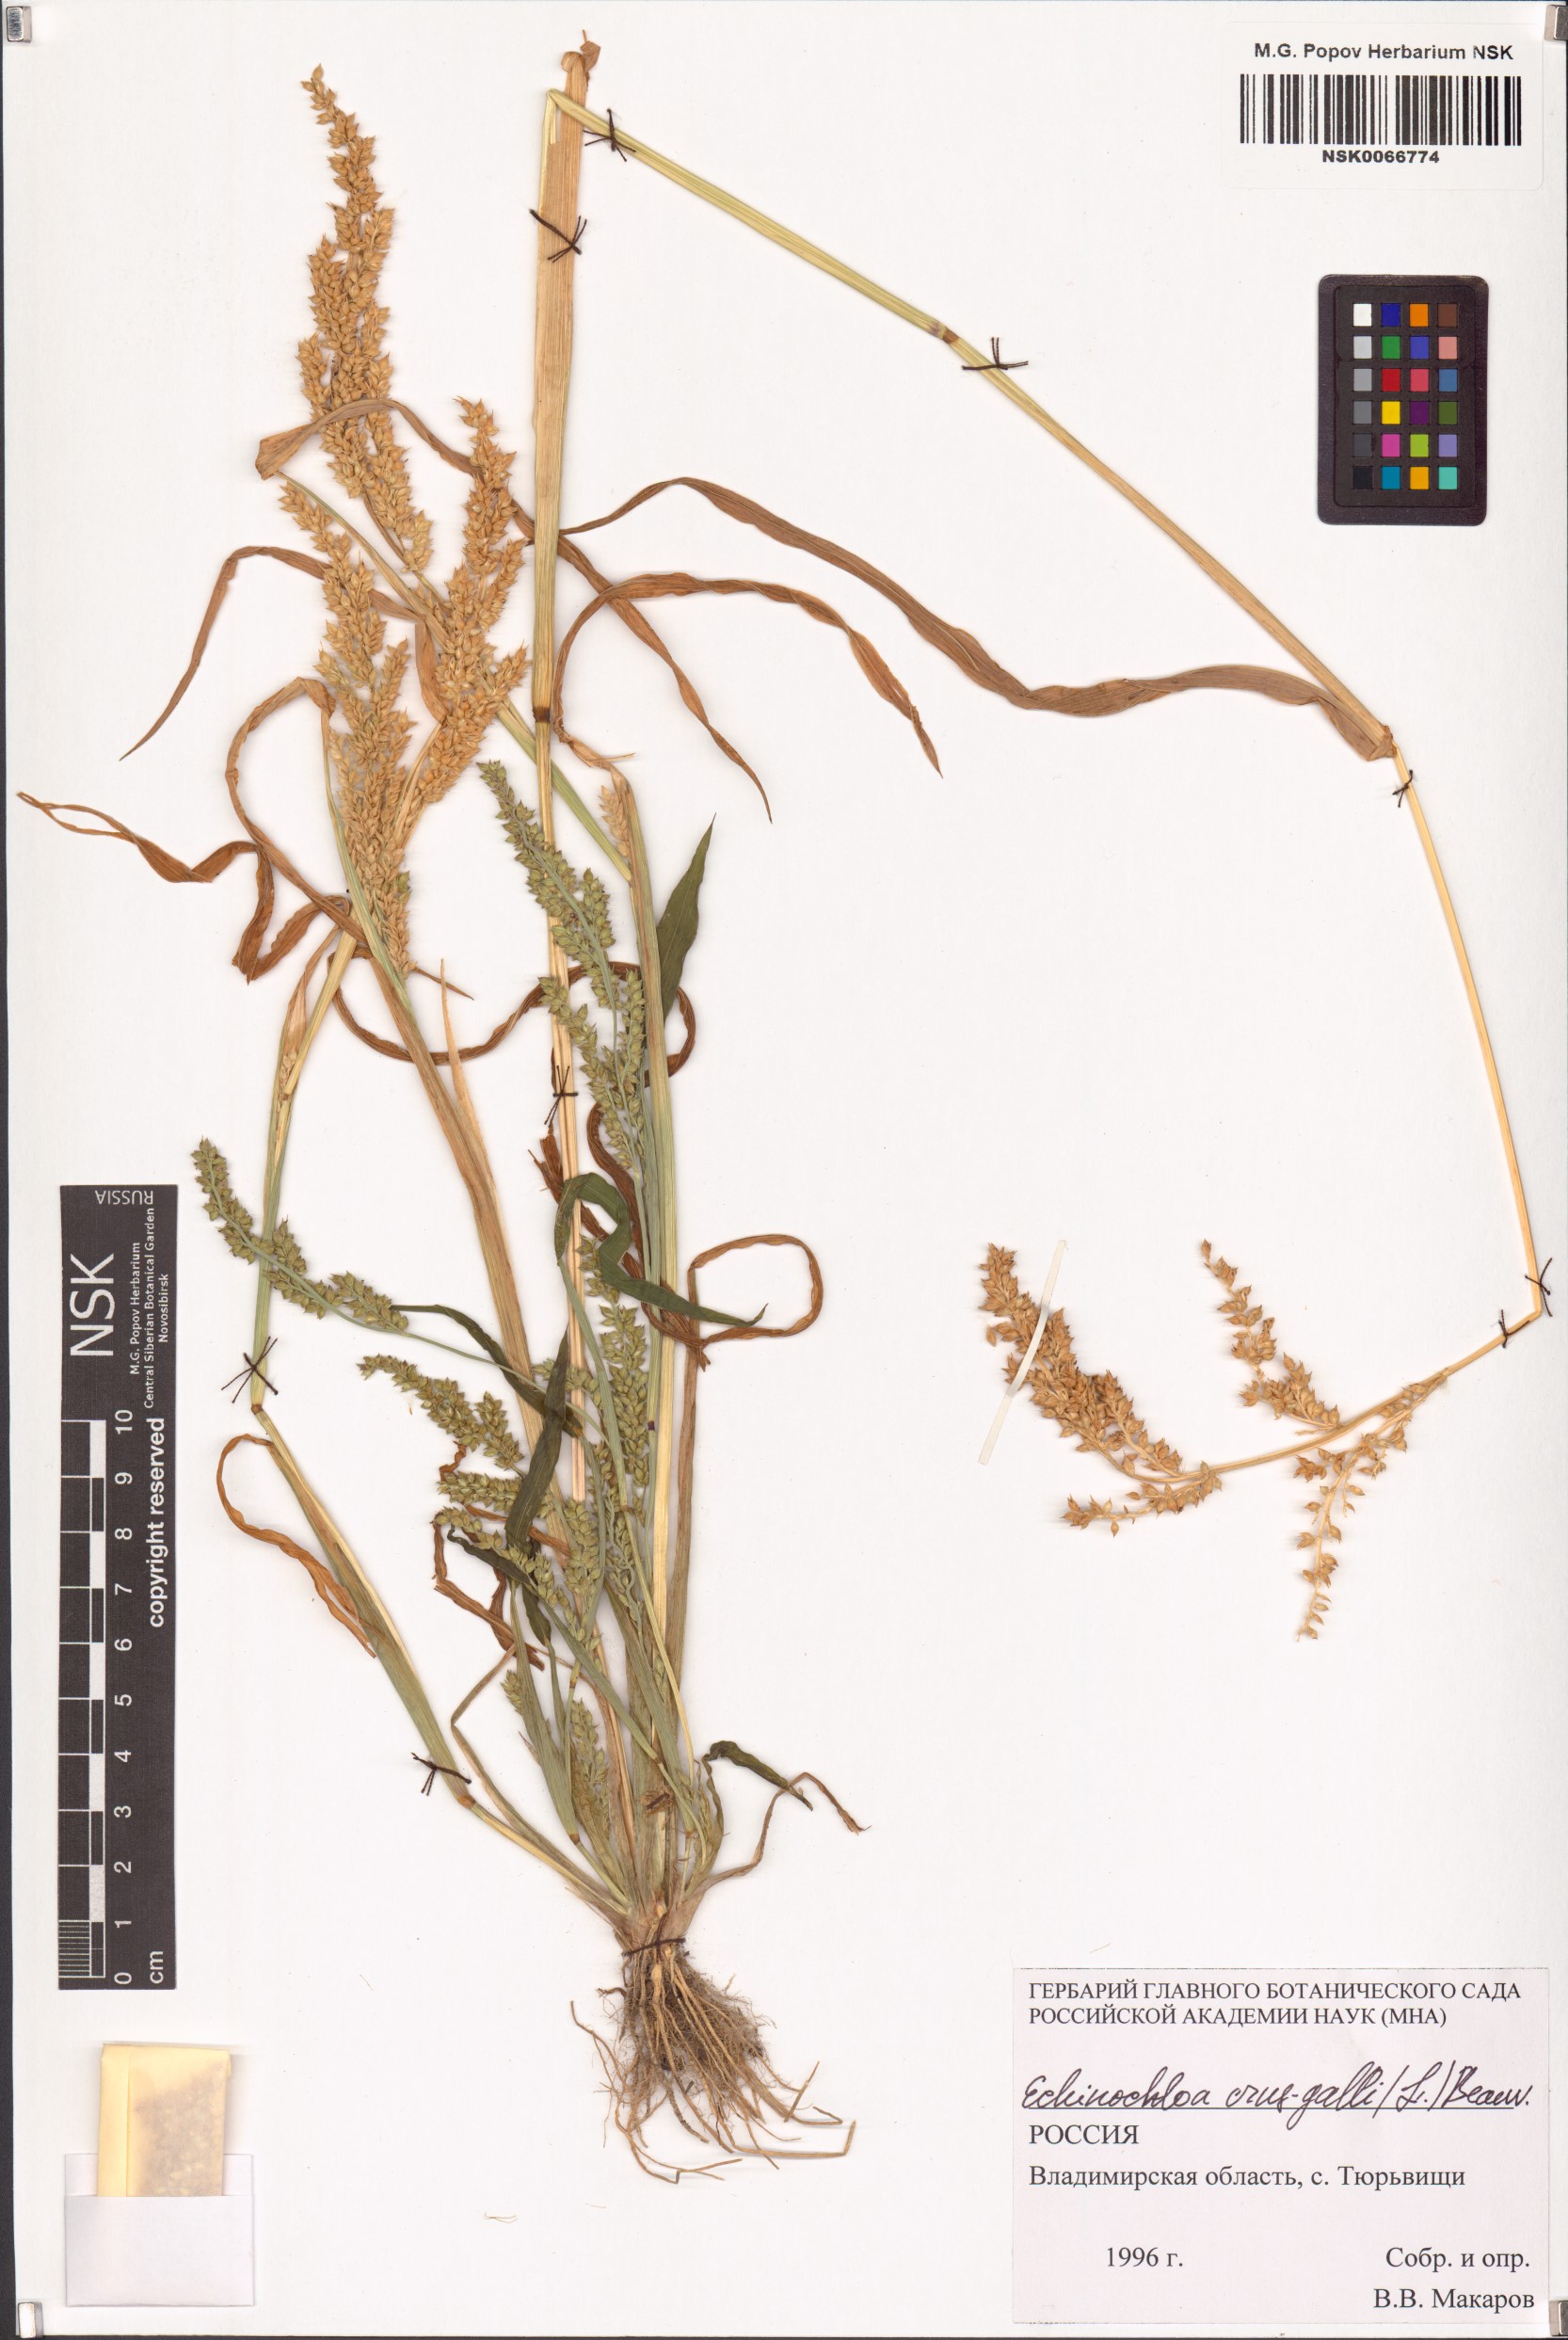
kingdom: Plantae
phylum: Tracheophyta
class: Liliopsida
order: Poales
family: Poaceae
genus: Echinochloa
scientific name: Echinochloa crus-galli
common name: Cockspur
